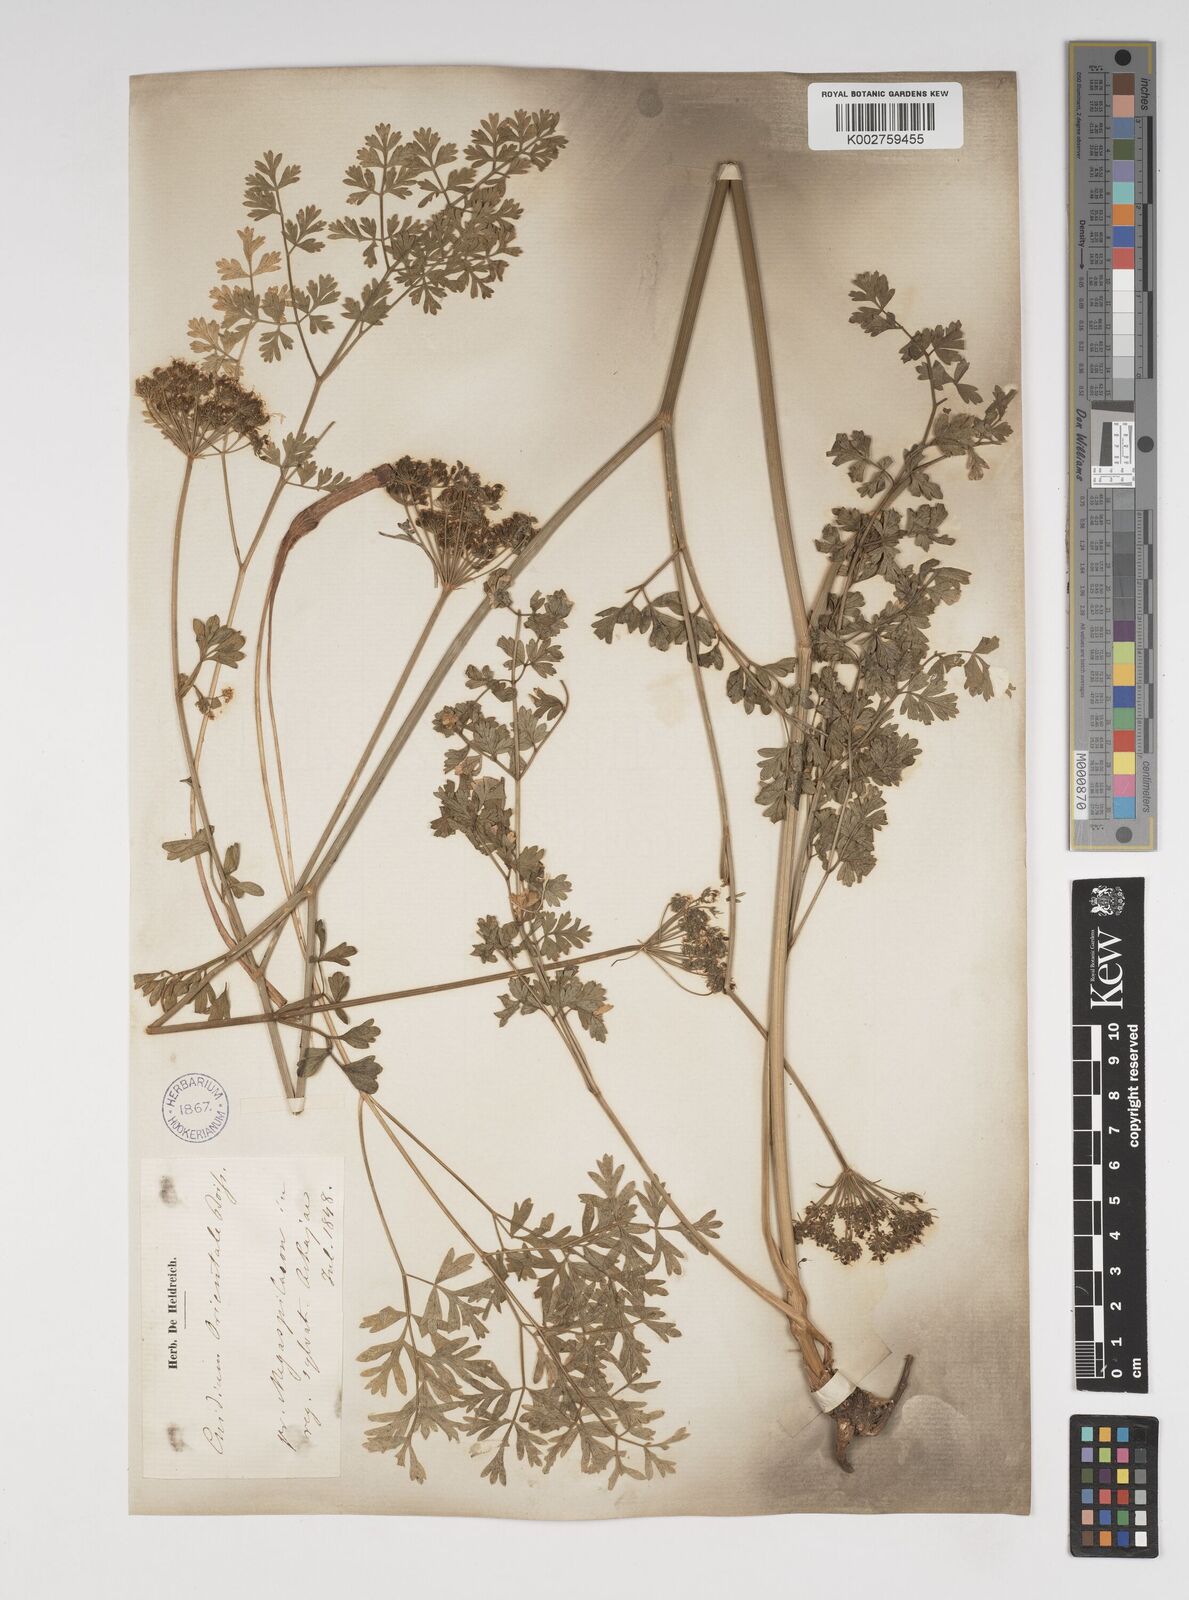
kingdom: Plantae
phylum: Tracheophyta
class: Magnoliopsida
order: Apiales
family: Apiaceae
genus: Katapsuxis
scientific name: Katapsuxis silaifolia
